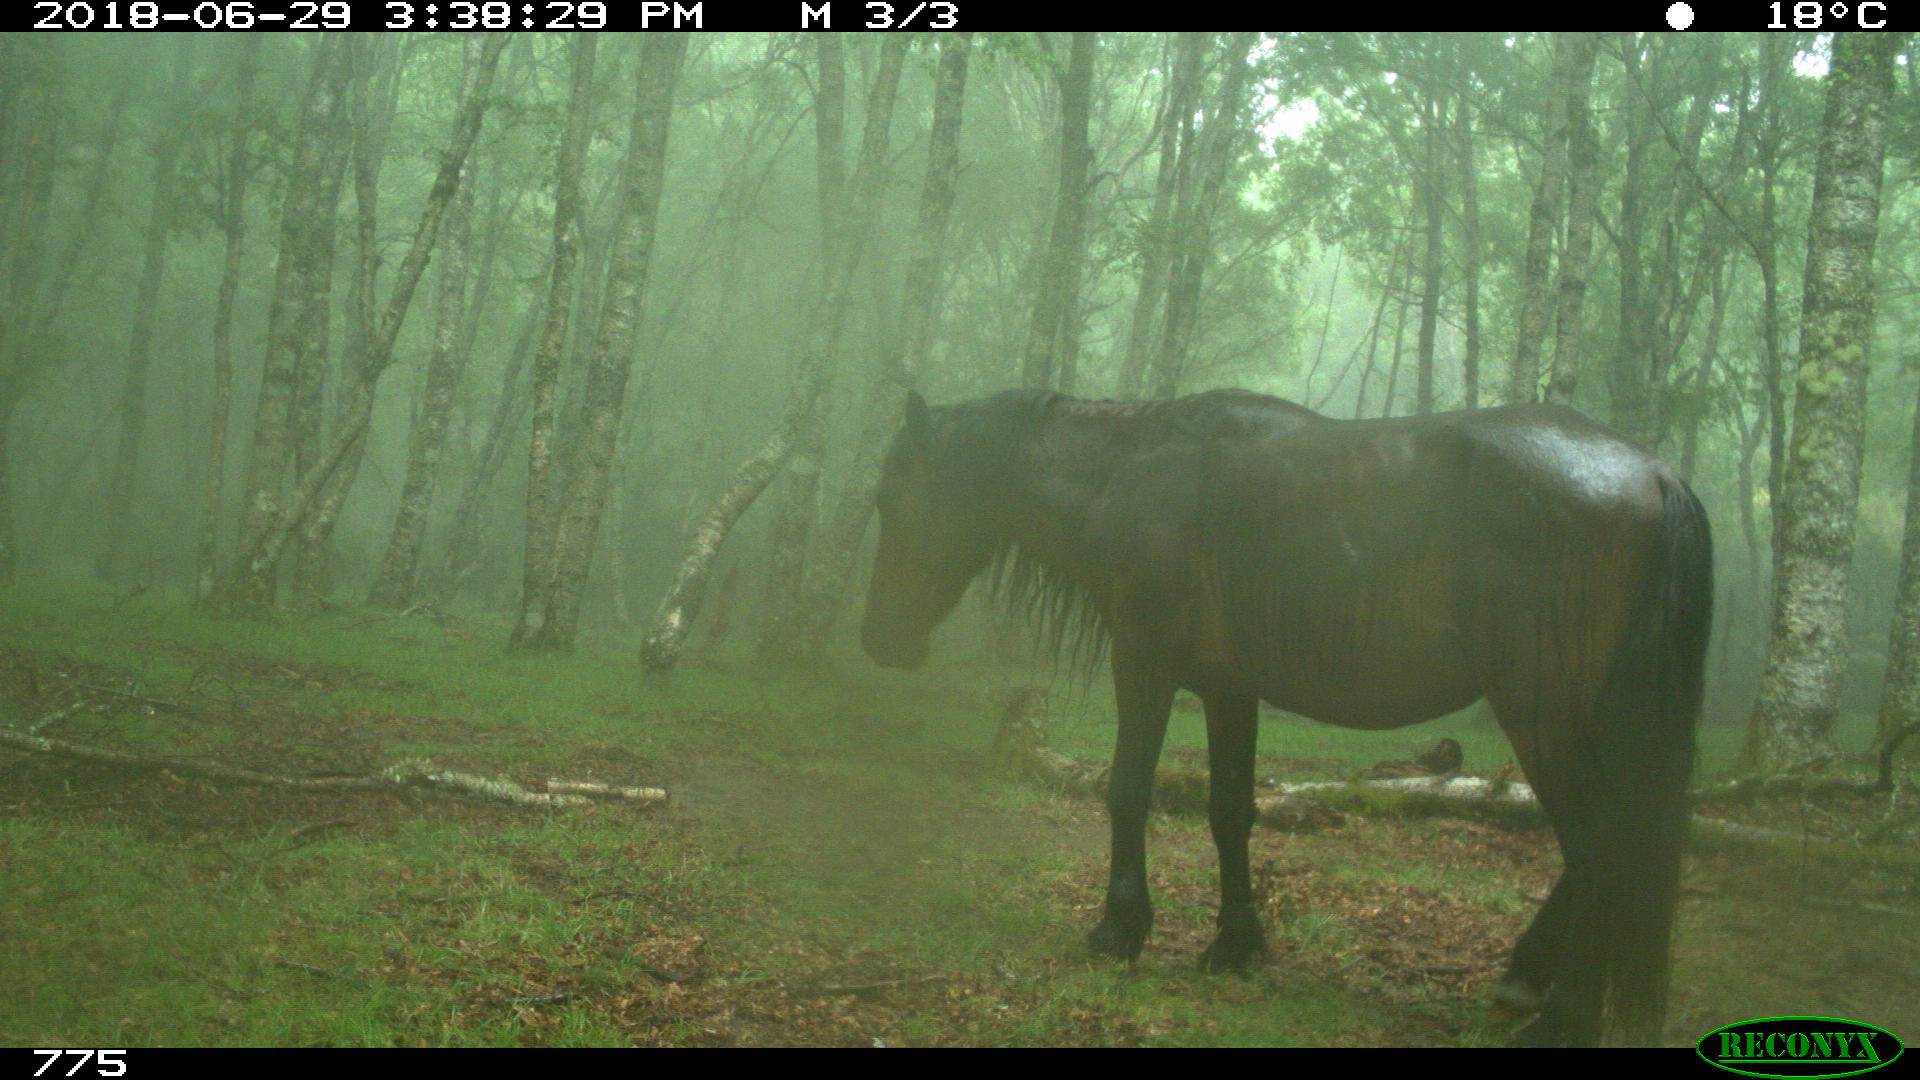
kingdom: Animalia
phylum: Chordata
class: Mammalia
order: Perissodactyla
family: Equidae
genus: Equus
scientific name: Equus caballus
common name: Horse
